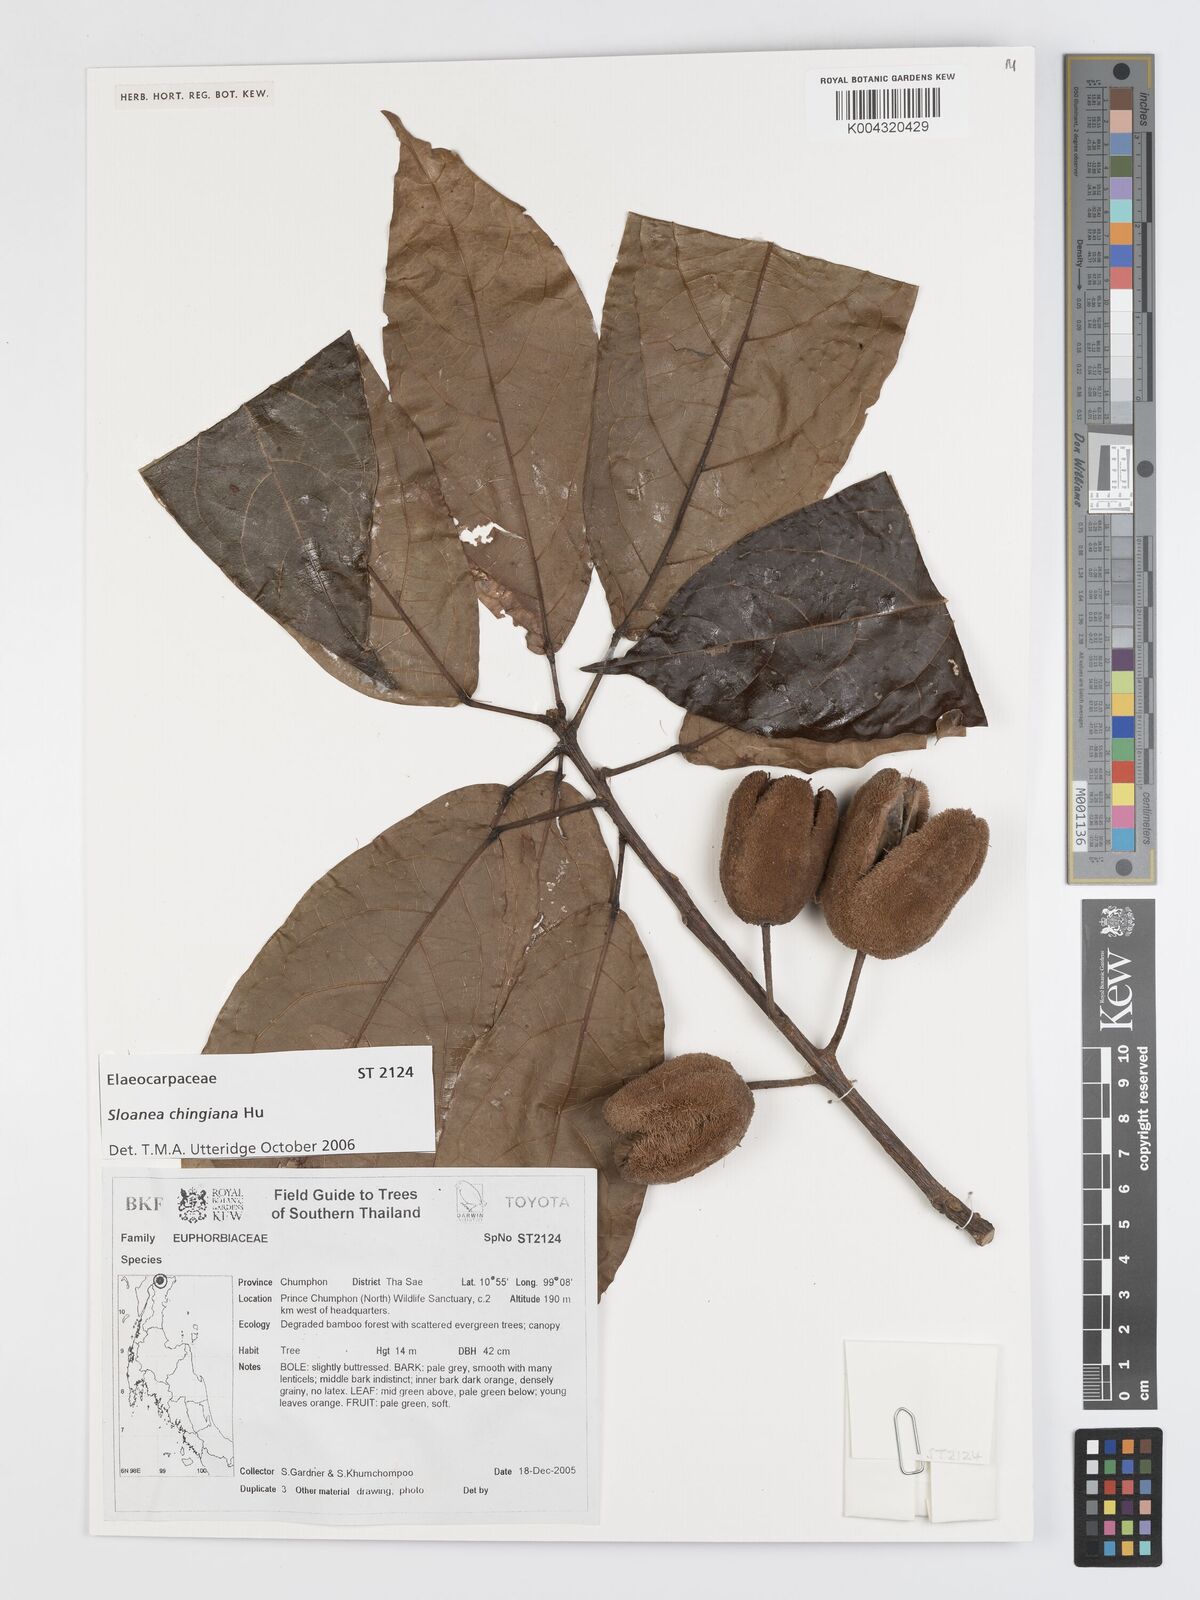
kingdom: Plantae
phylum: Tracheophyta
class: Magnoliopsida
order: Oxalidales
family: Elaeocarpaceae
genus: Sloanea
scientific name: Sloanea chingiana
